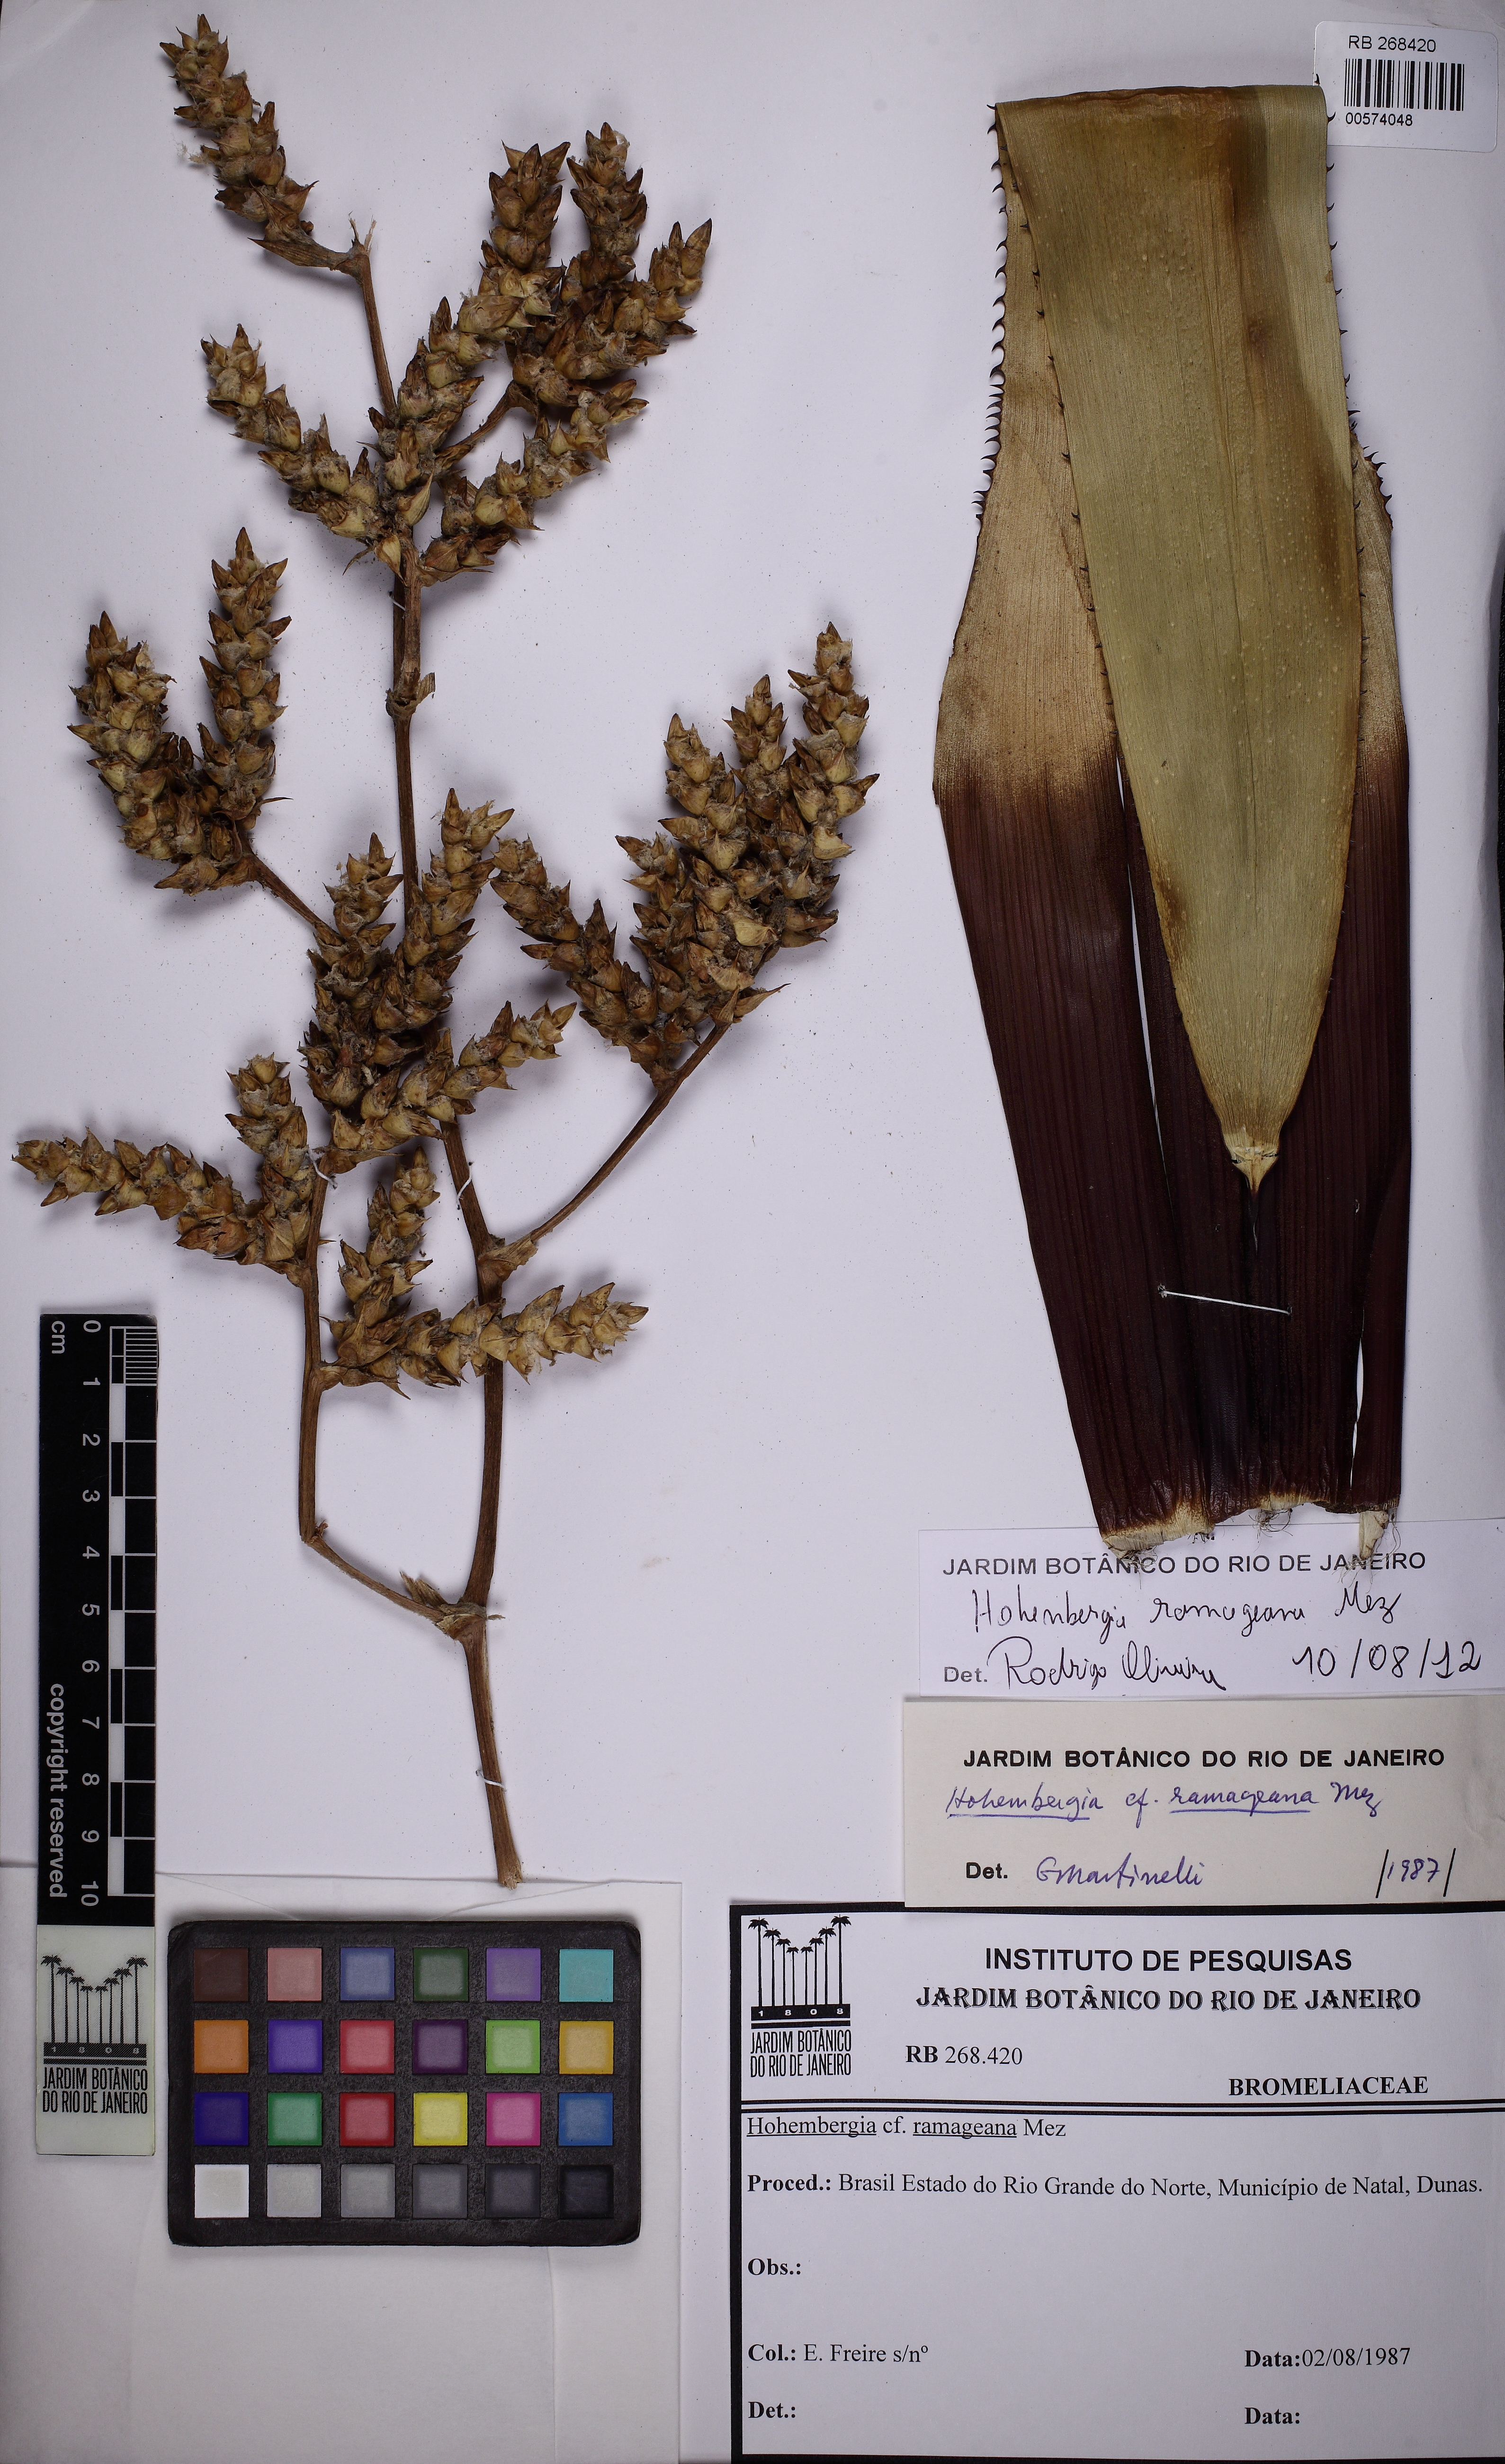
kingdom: Plantae
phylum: Tracheophyta
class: Liliopsida
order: Poales
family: Bromeliaceae
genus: Hohenbergia
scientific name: Hohenbergia ridleyi
